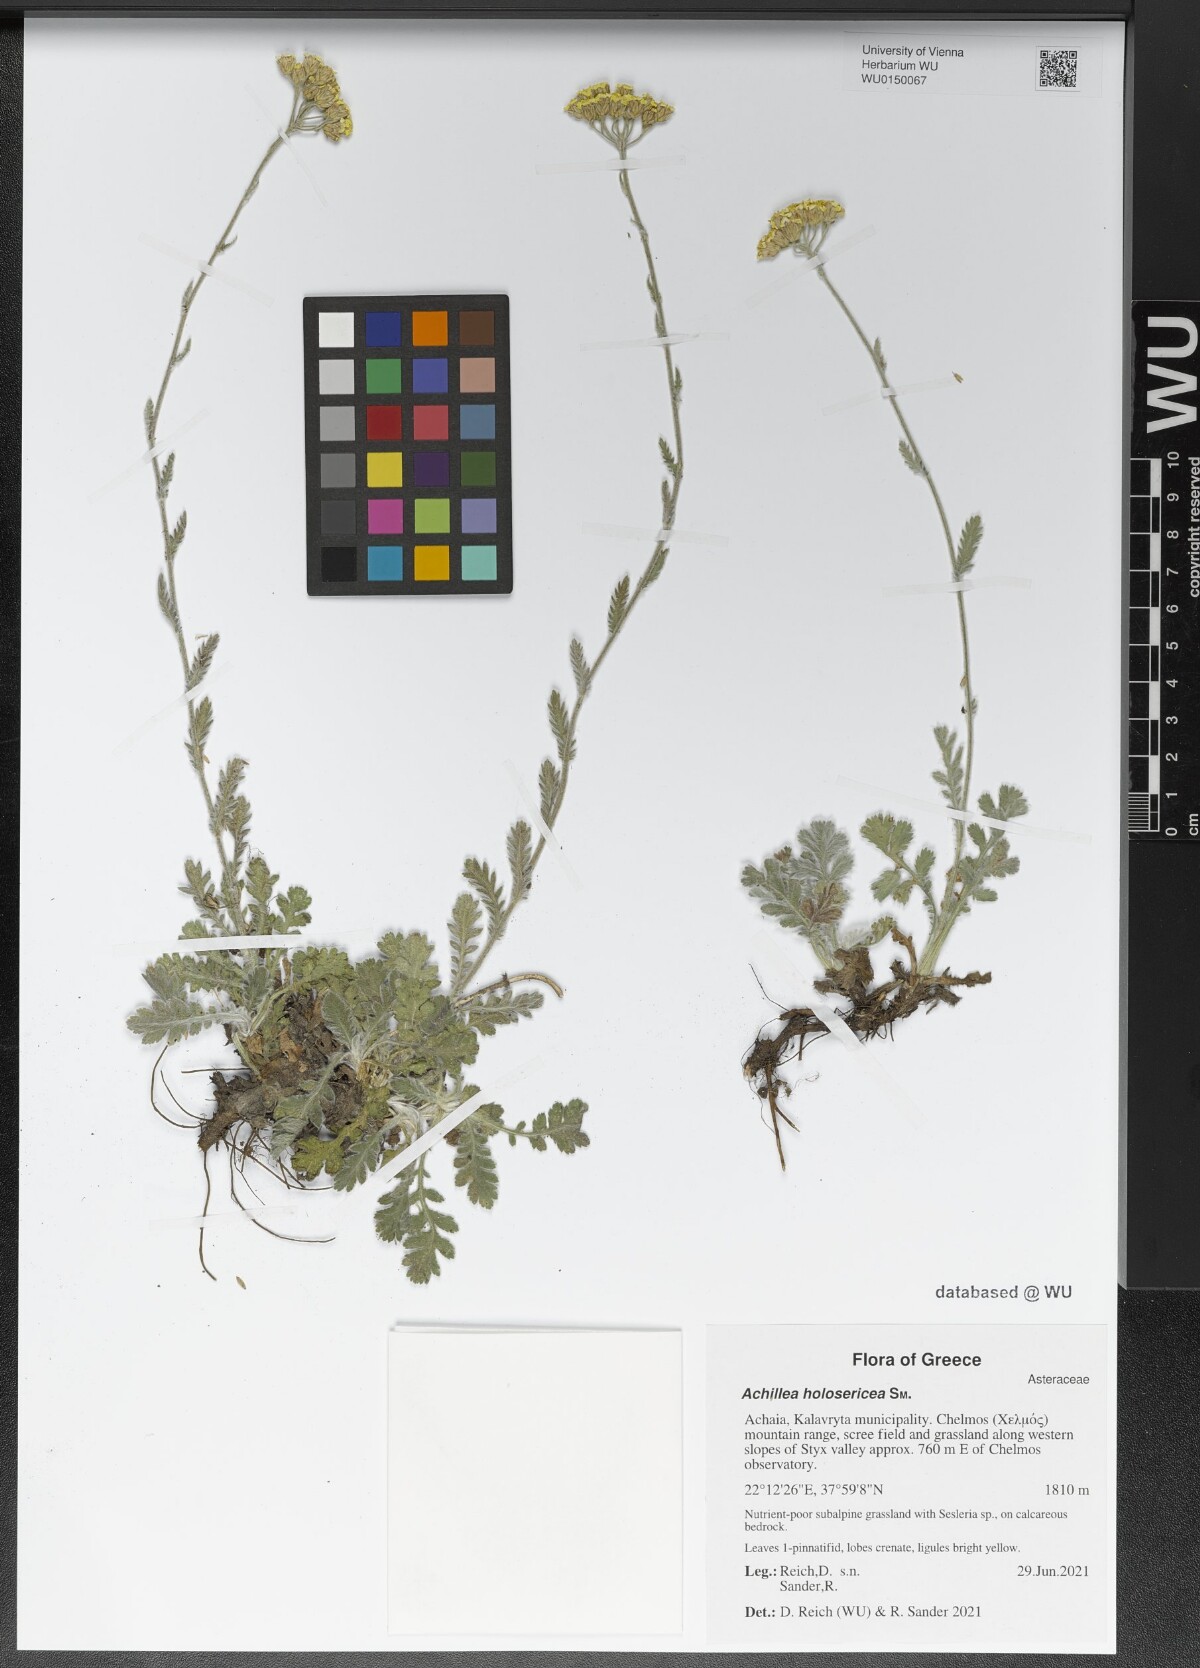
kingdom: Plantae
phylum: Tracheophyta
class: Magnoliopsida
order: Asterales
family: Asteraceae
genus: Achillea
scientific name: Achillea holosericea
